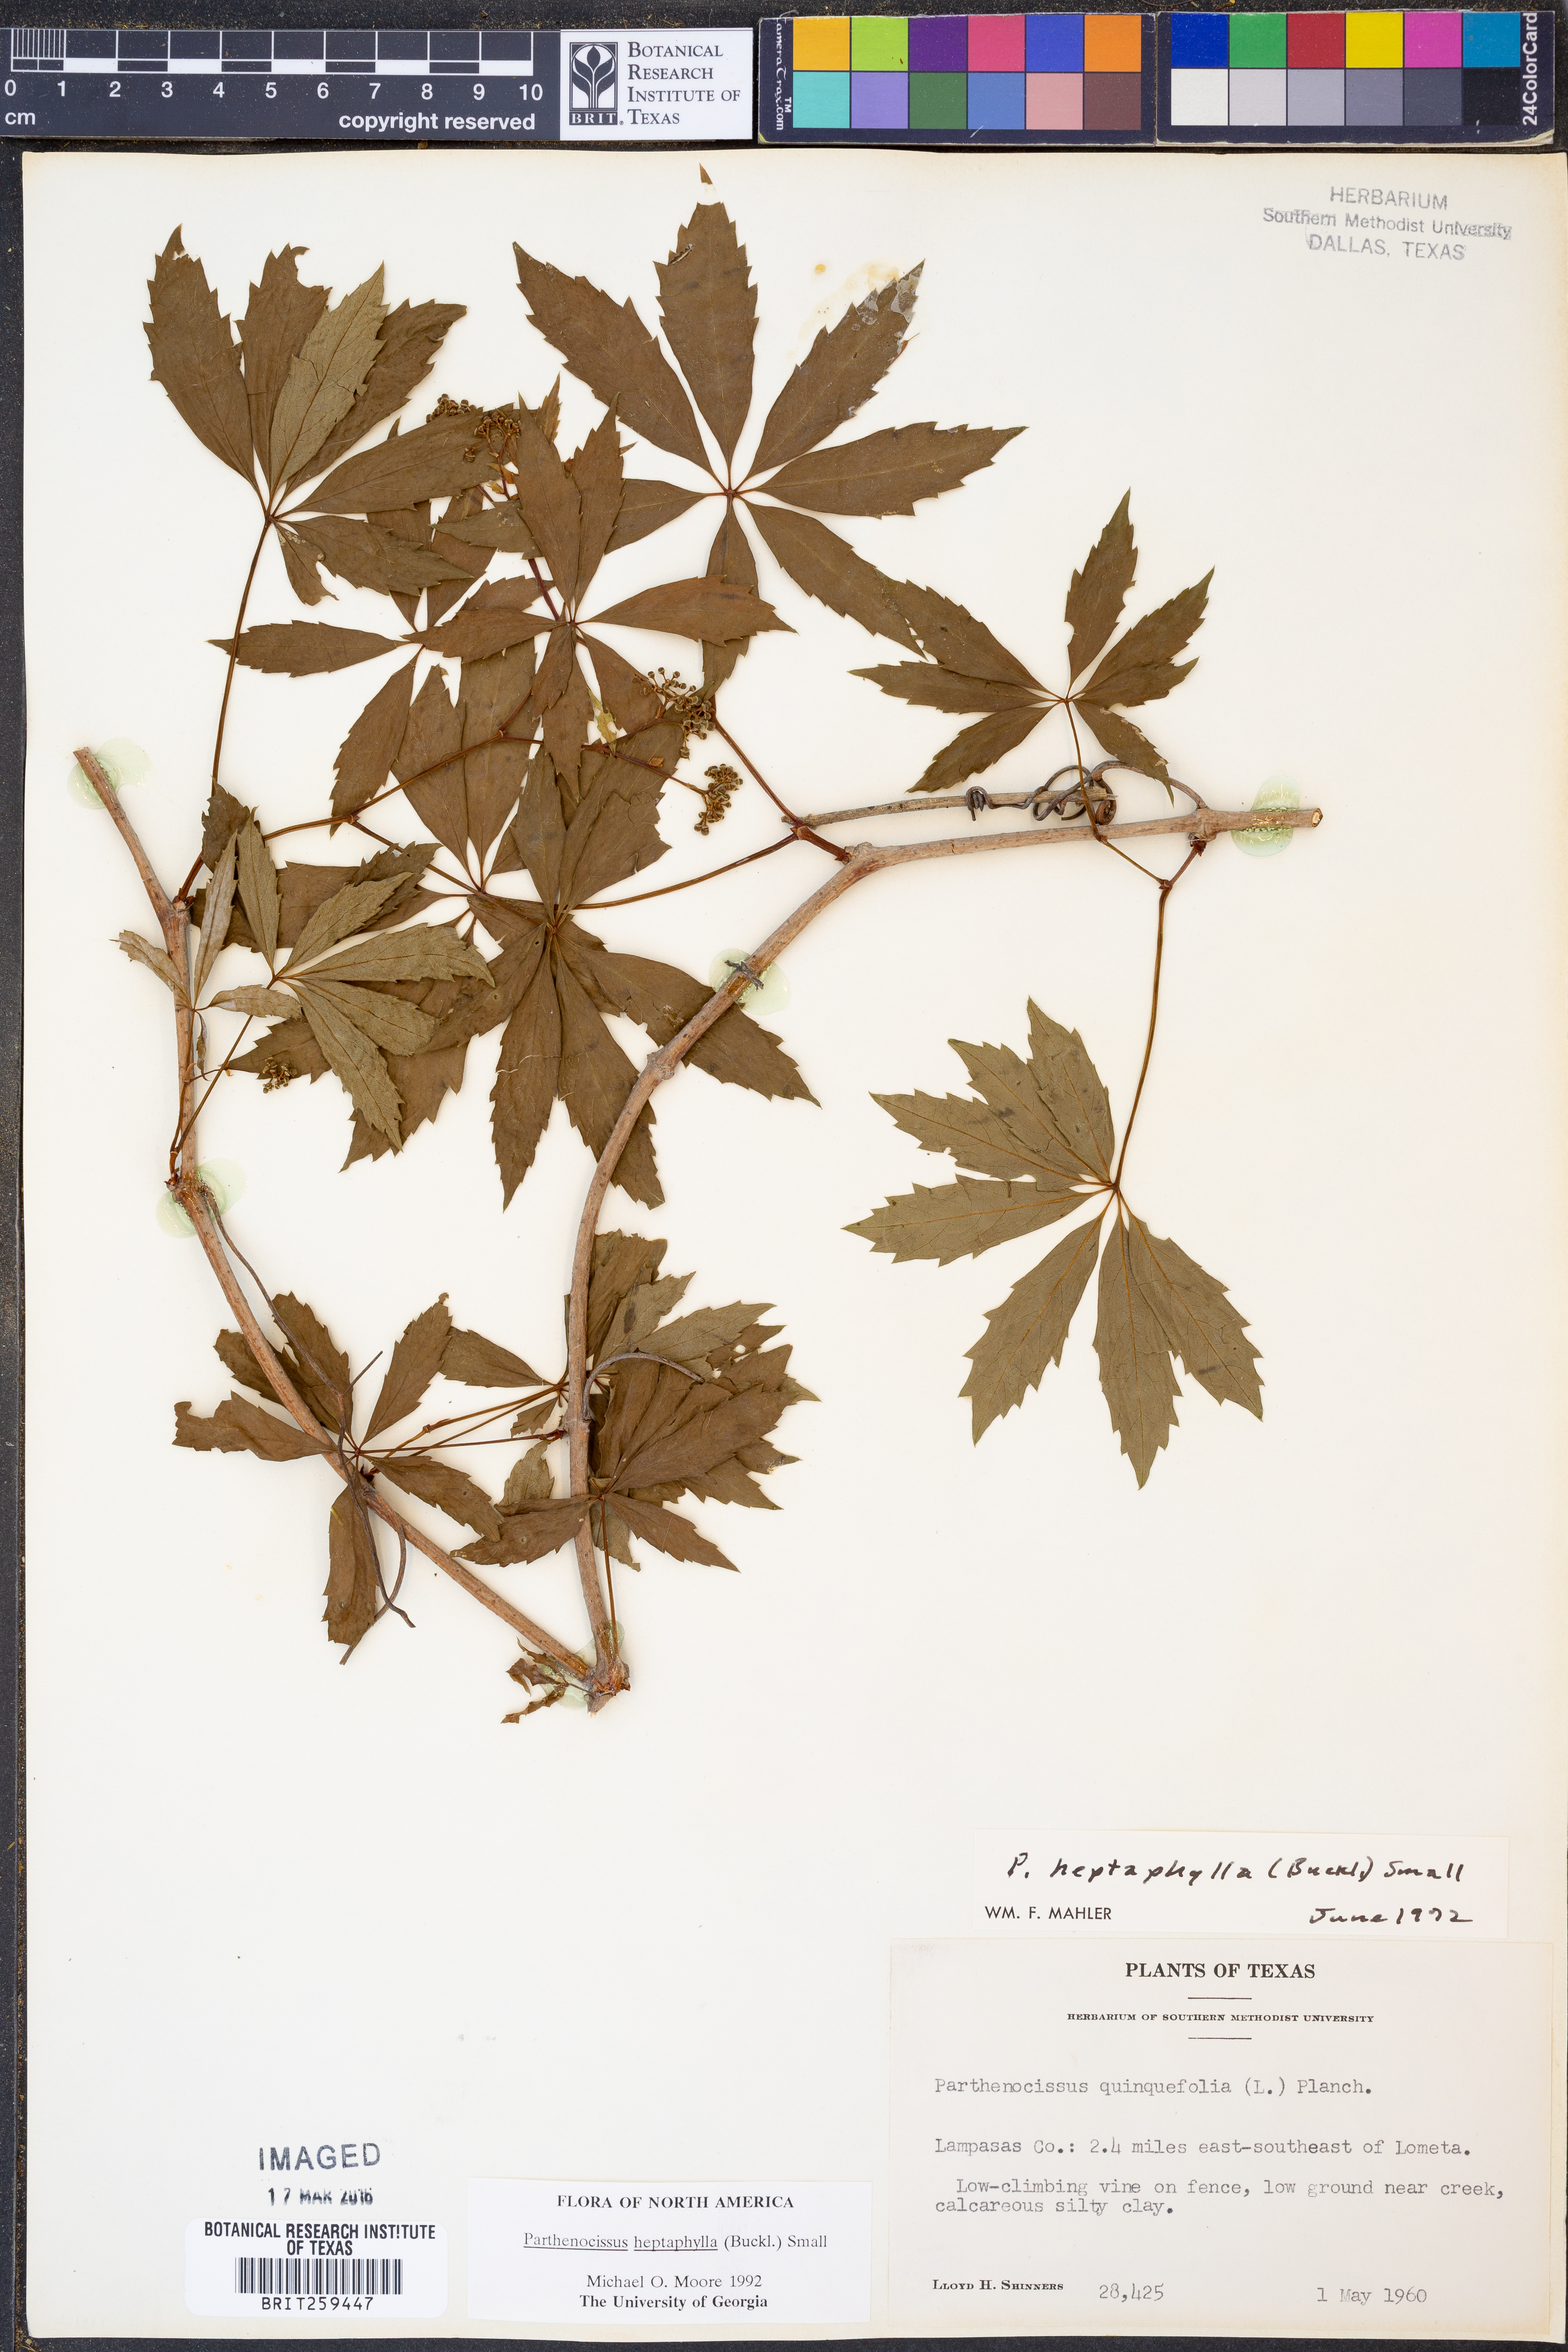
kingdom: Plantae
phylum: Tracheophyta
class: Magnoliopsida
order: Vitales
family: Vitaceae
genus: Parthenocissus
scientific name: Parthenocissus heptaphylla
